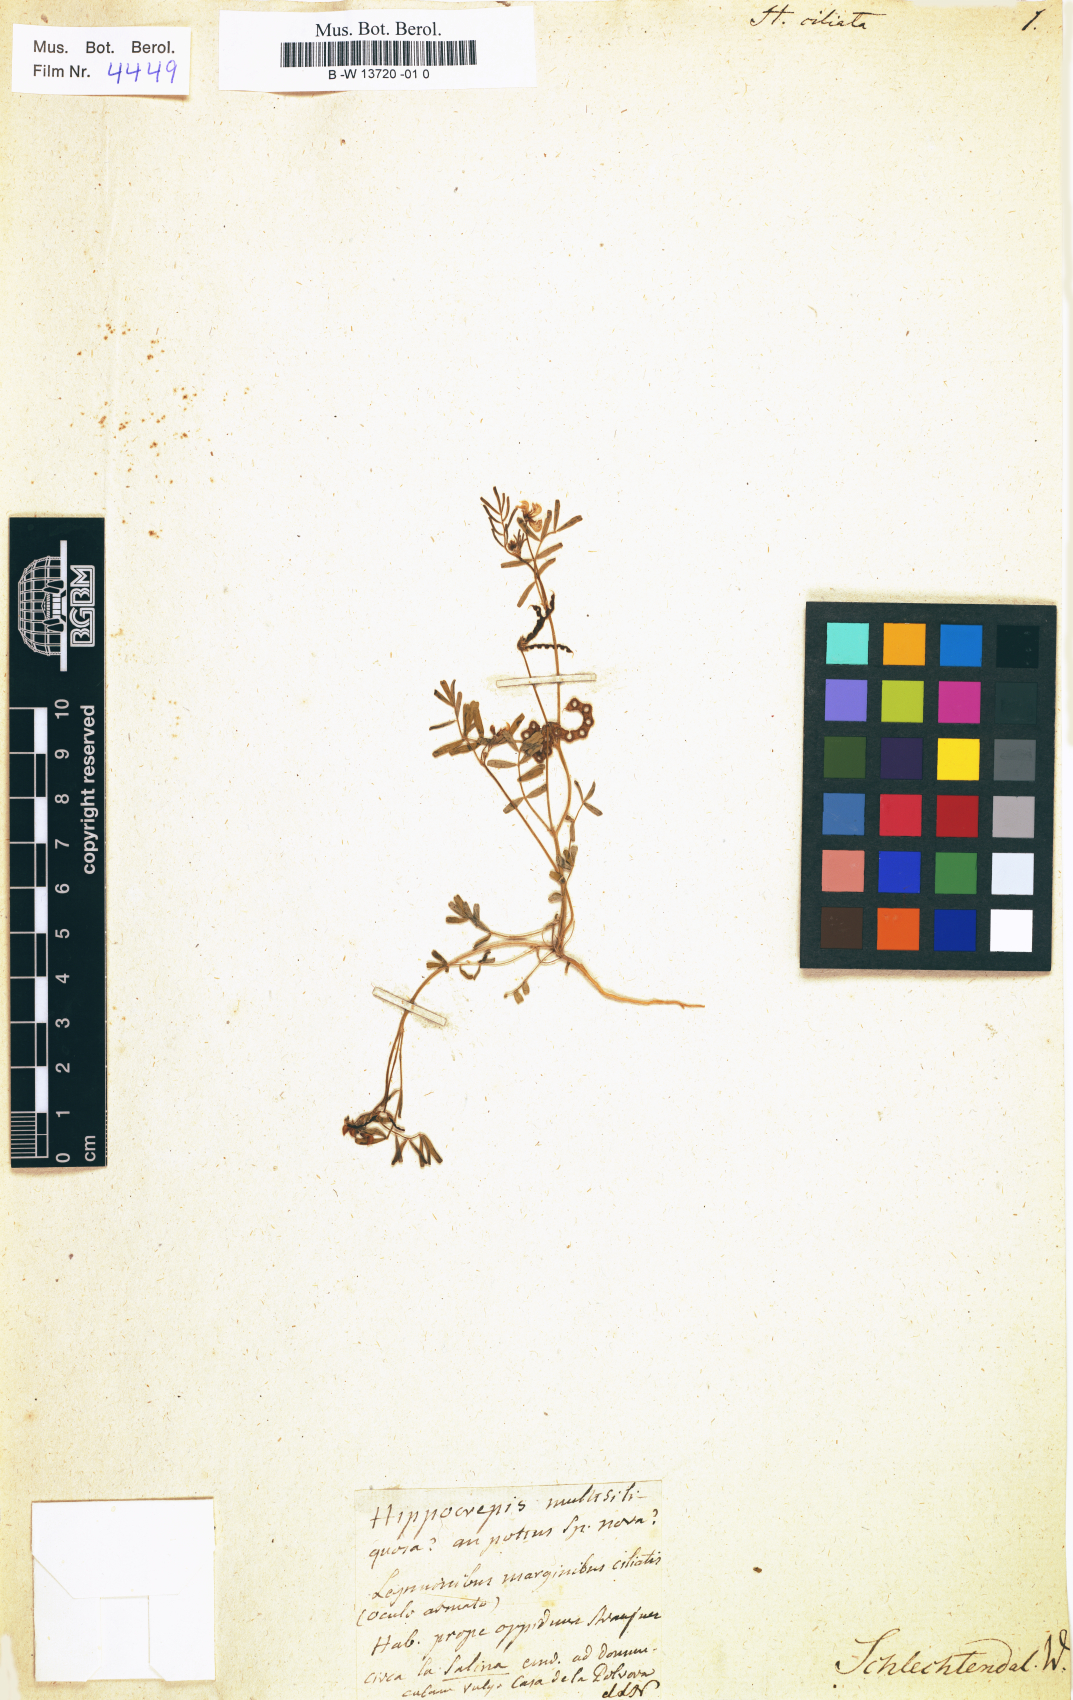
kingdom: Plantae
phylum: Tracheophyta
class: Magnoliopsida
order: Fabales
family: Fabaceae
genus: Hippocrepis
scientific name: Hippocrepis ciliata
